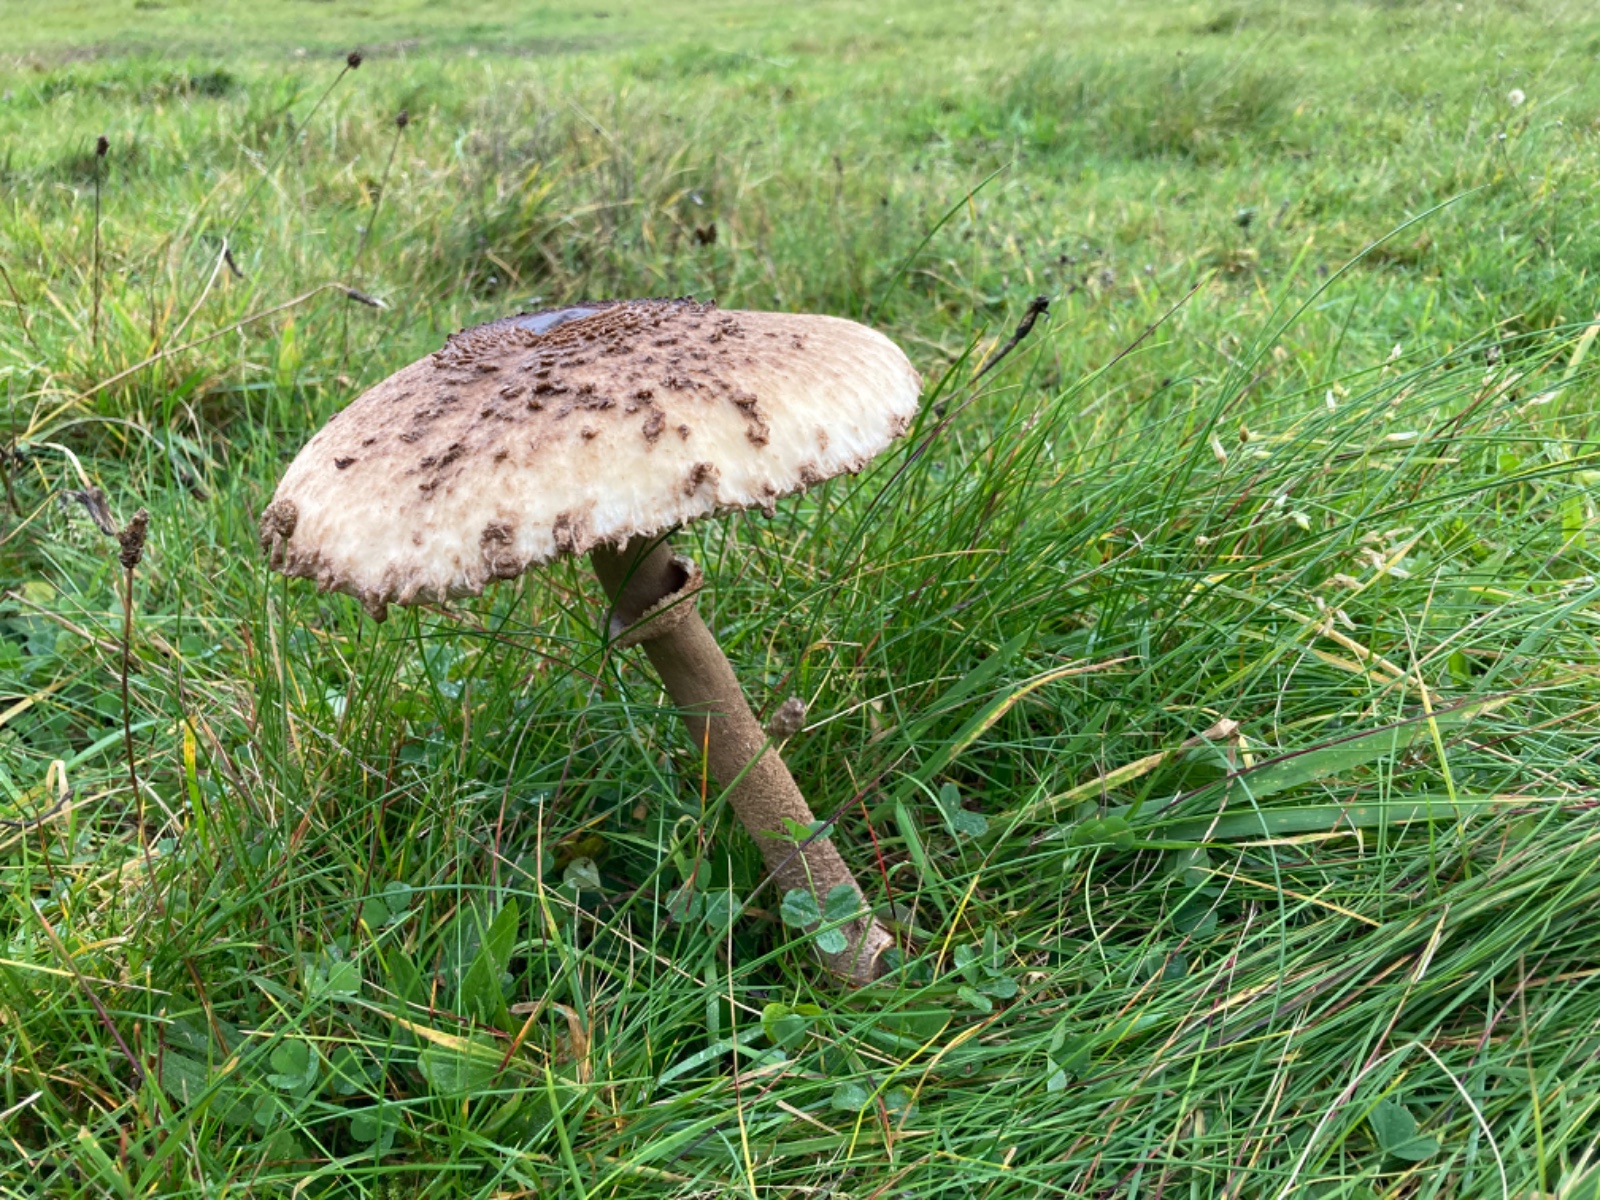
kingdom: Fungi
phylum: Basidiomycota
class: Agaricomycetes
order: Agaricales
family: Agaricaceae
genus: Macrolepiota
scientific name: Macrolepiota procera
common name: stor kæmpeparasolhat
